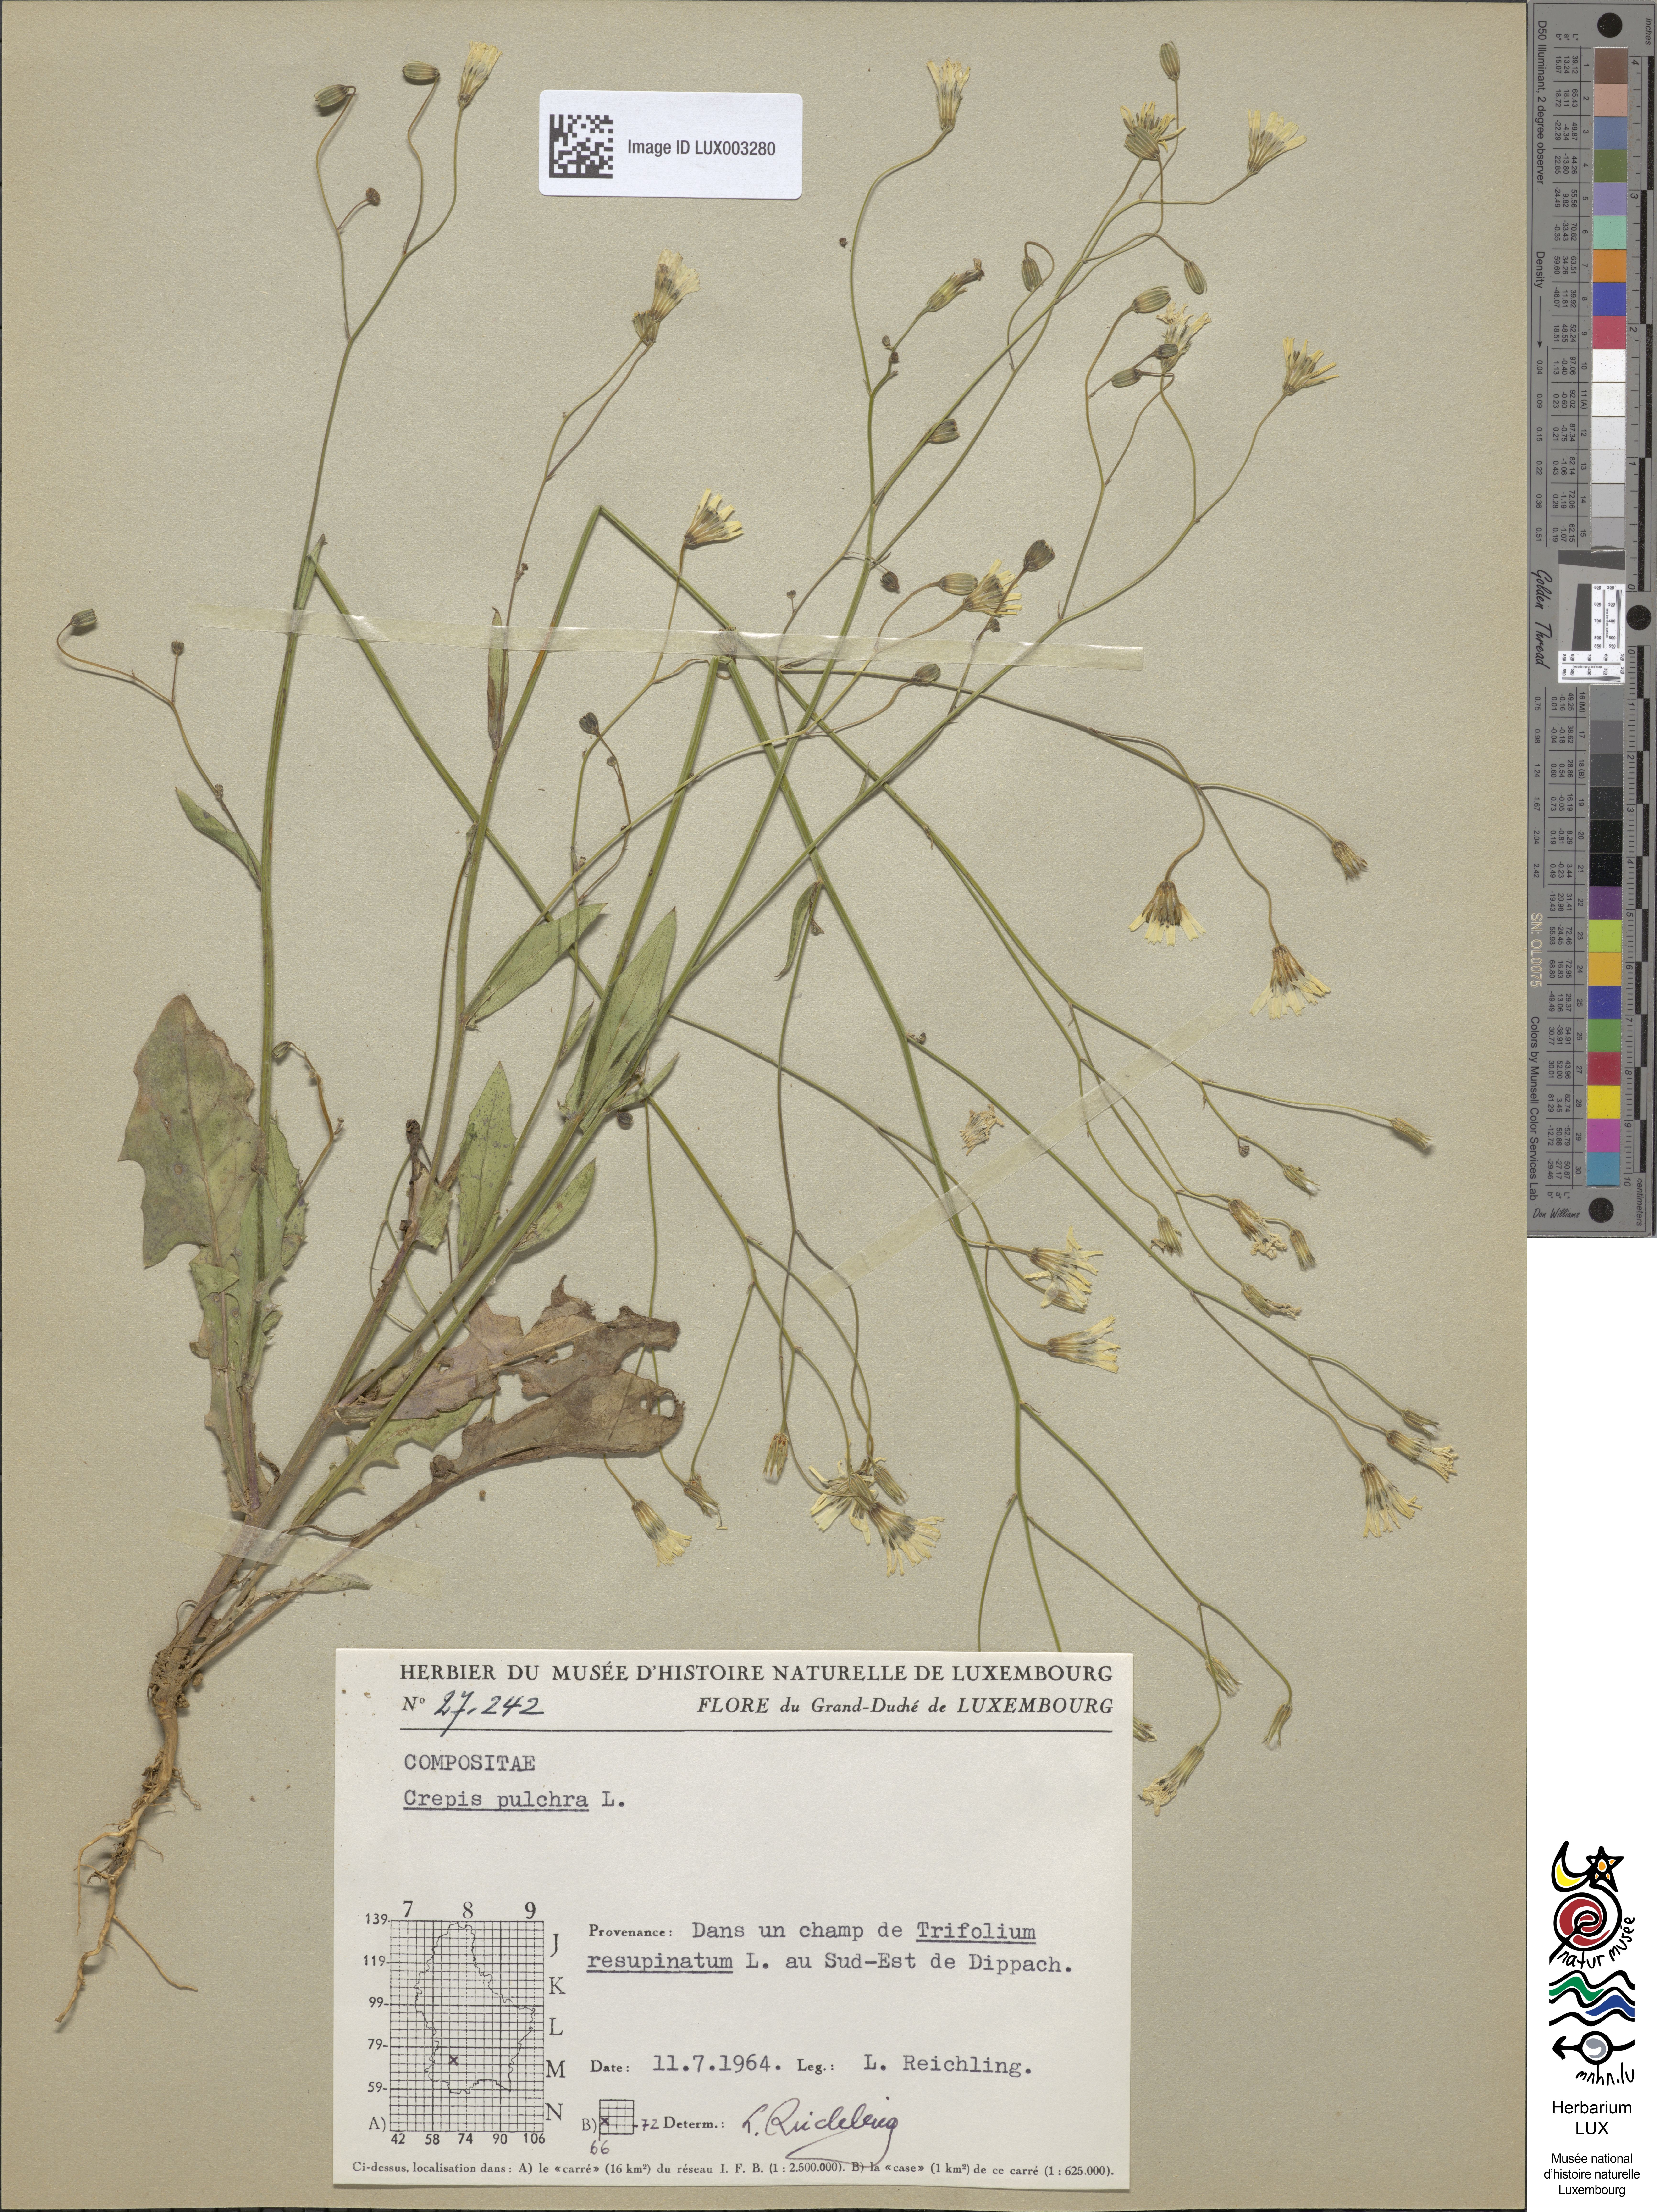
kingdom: Plantae
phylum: Tracheophyta
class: Magnoliopsida
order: Asterales
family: Asteraceae
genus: Crepis
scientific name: Crepis pulchra
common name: Hawk's-beard
